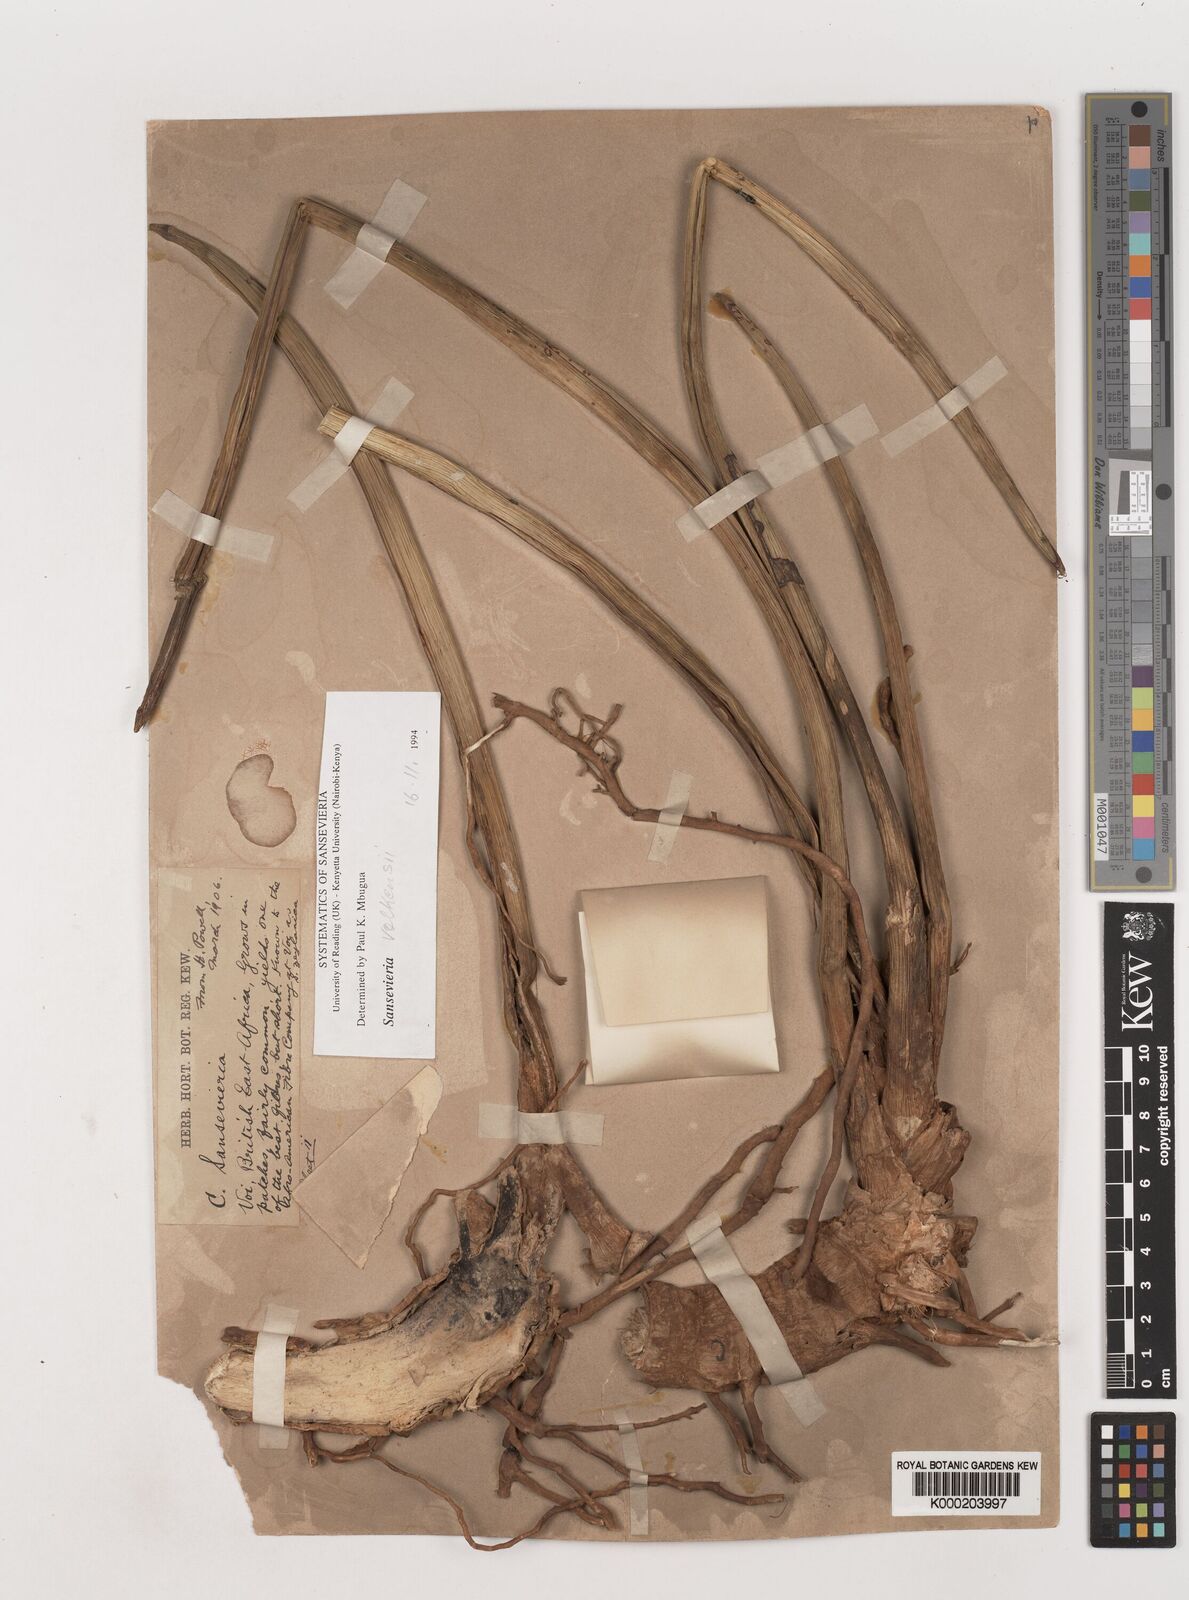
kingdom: Plantae
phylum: Tracheophyta
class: Liliopsida
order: Asparagales
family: Asparagaceae
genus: Dracaena
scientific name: Dracaena
